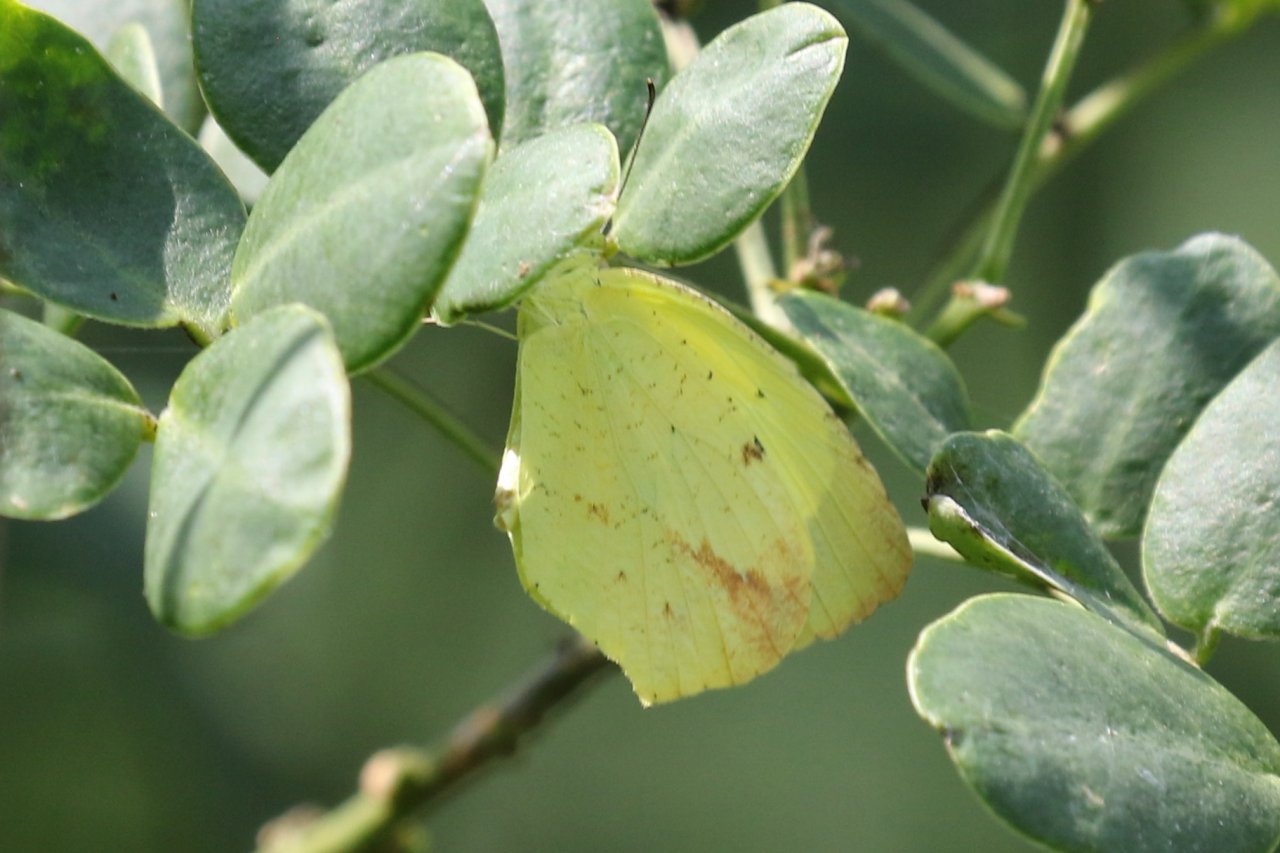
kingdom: Animalia
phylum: Arthropoda
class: Insecta
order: Lepidoptera
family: Pieridae
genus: Eurema
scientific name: Eurema boisduvaliana
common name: Boisduval's Yellow
